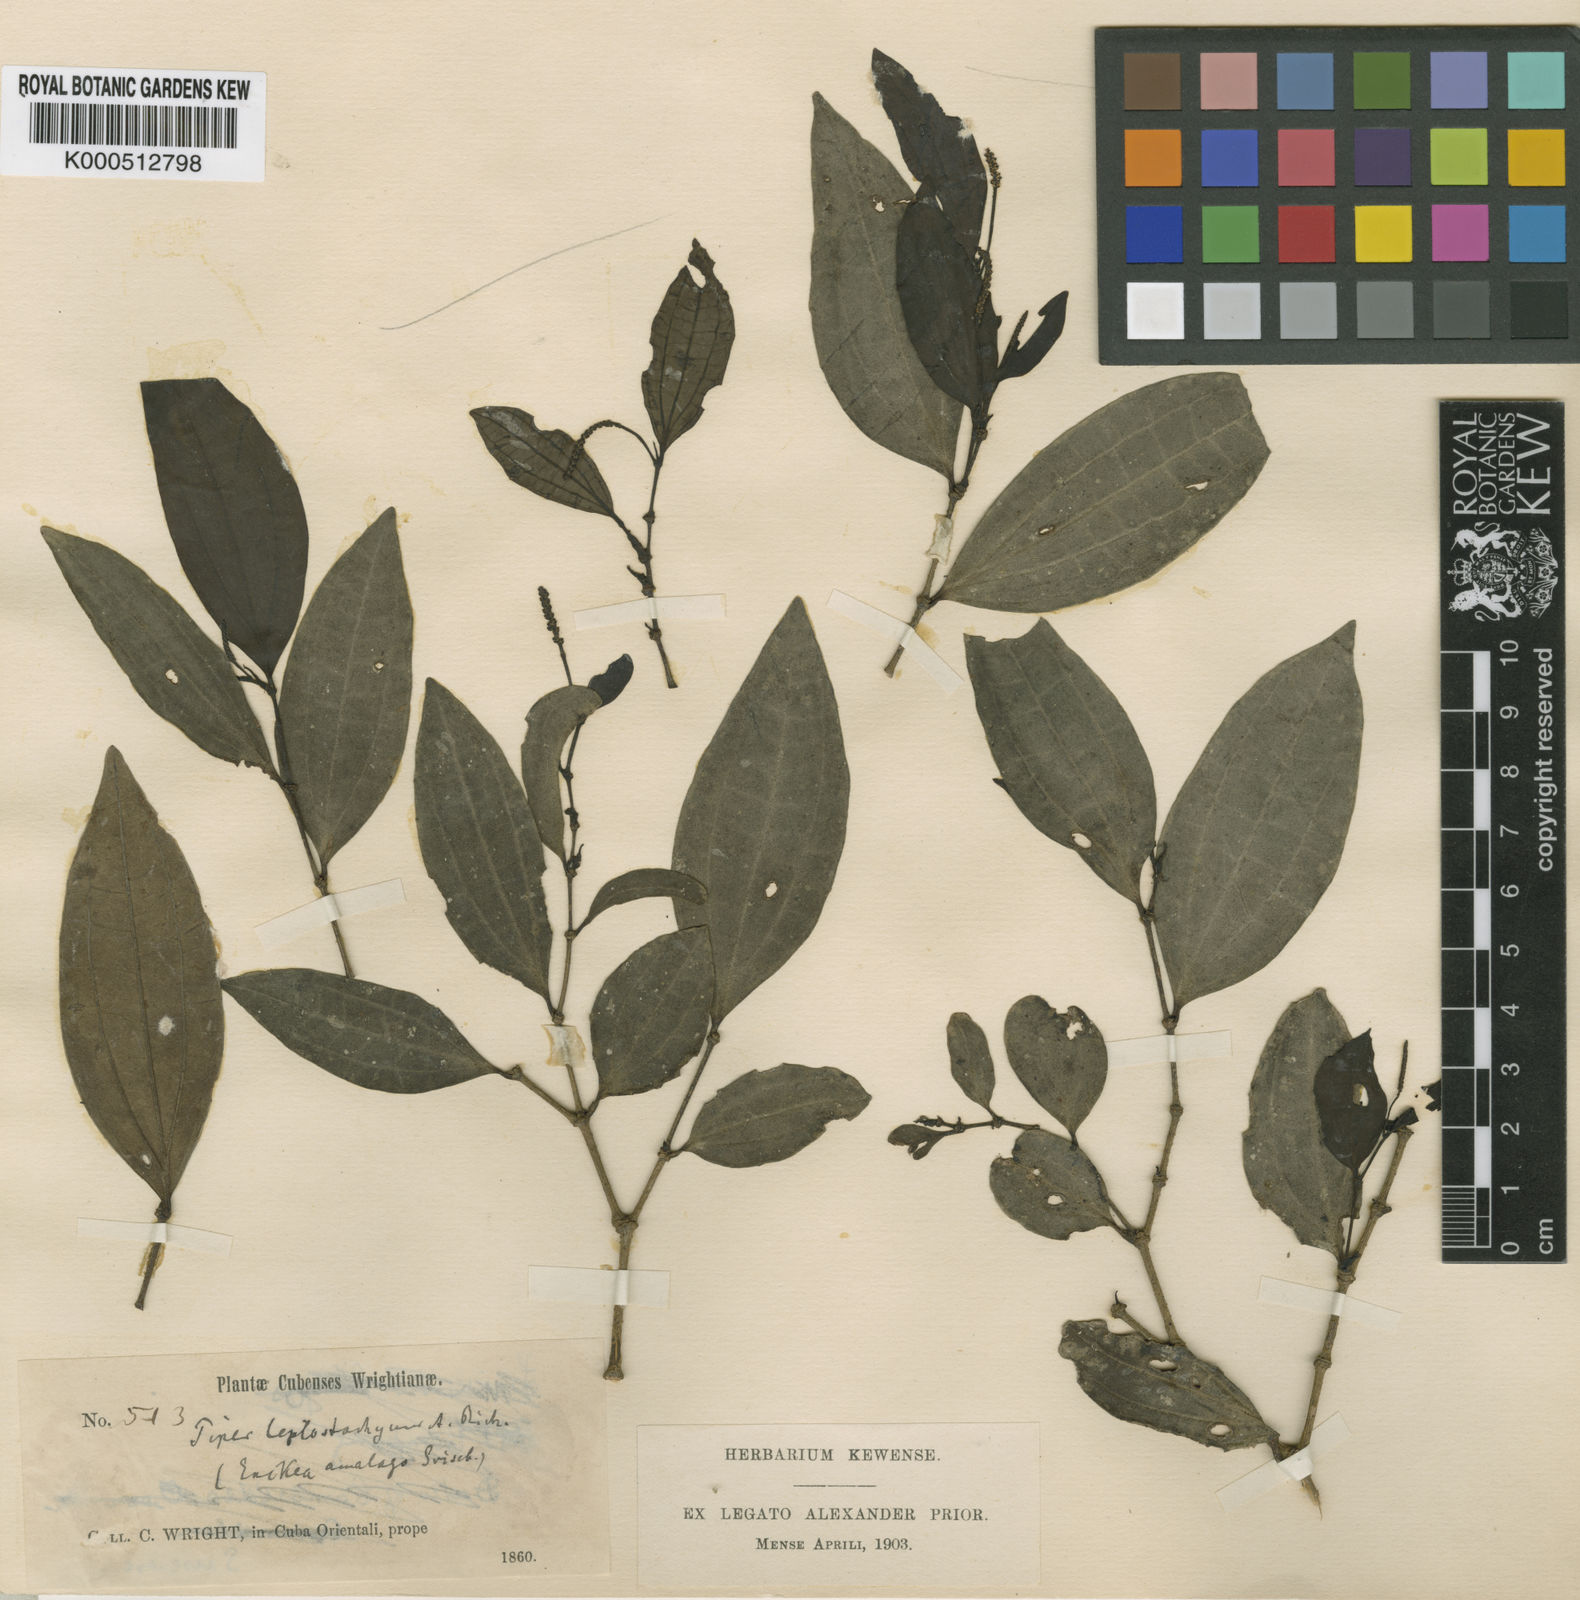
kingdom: Plantae
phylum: Tracheophyta
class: Magnoliopsida
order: Piperales
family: Piperaceae
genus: Piper
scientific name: Piper lindenianum
